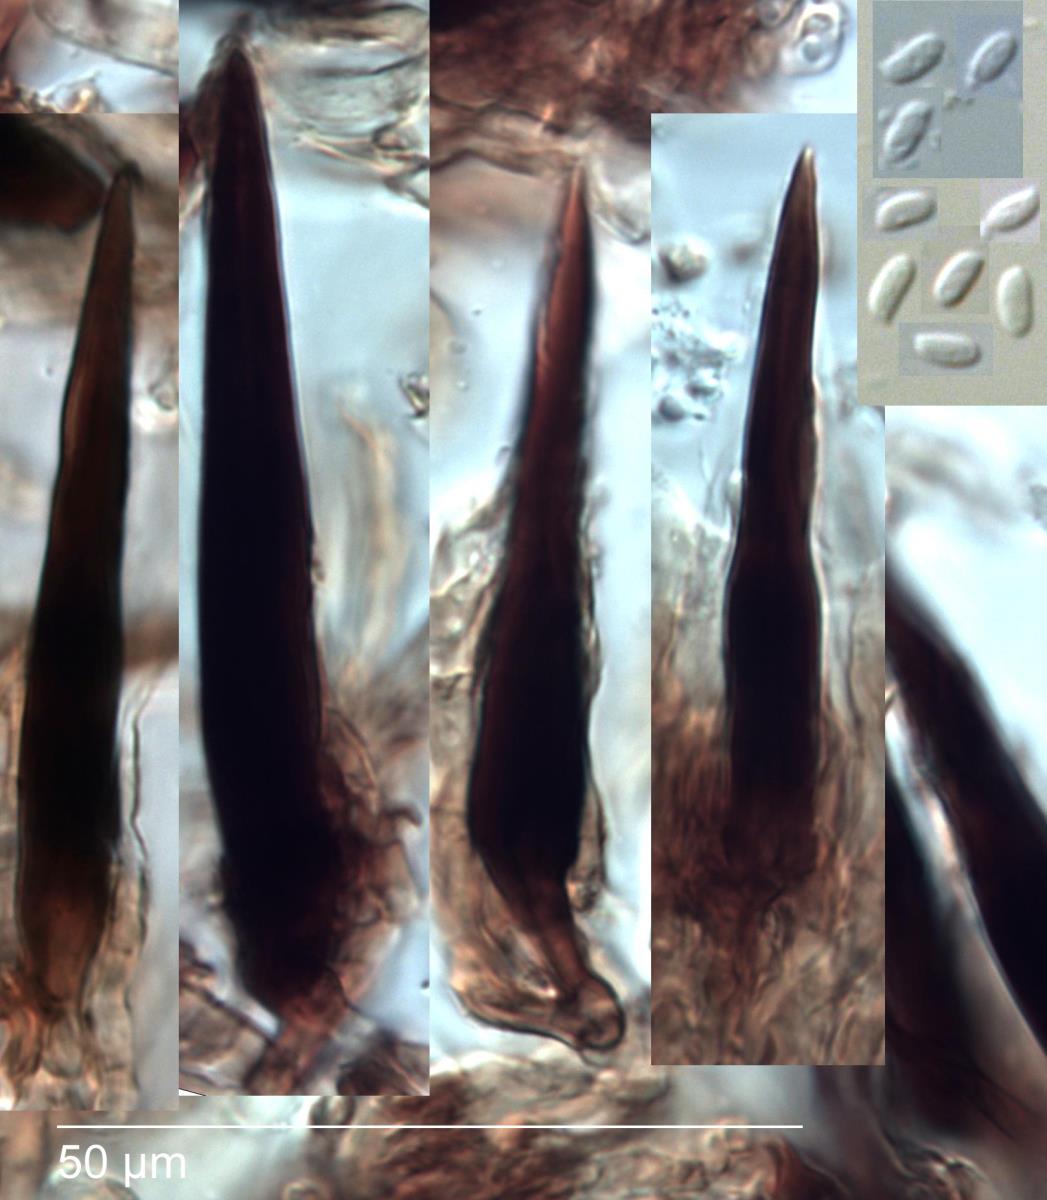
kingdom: Fungi
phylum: Basidiomycota
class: Agaricomycetes
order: Hymenochaetales
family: Hymenochaetaceae
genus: Hymenochaete
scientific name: Hymenochaete attenuata
